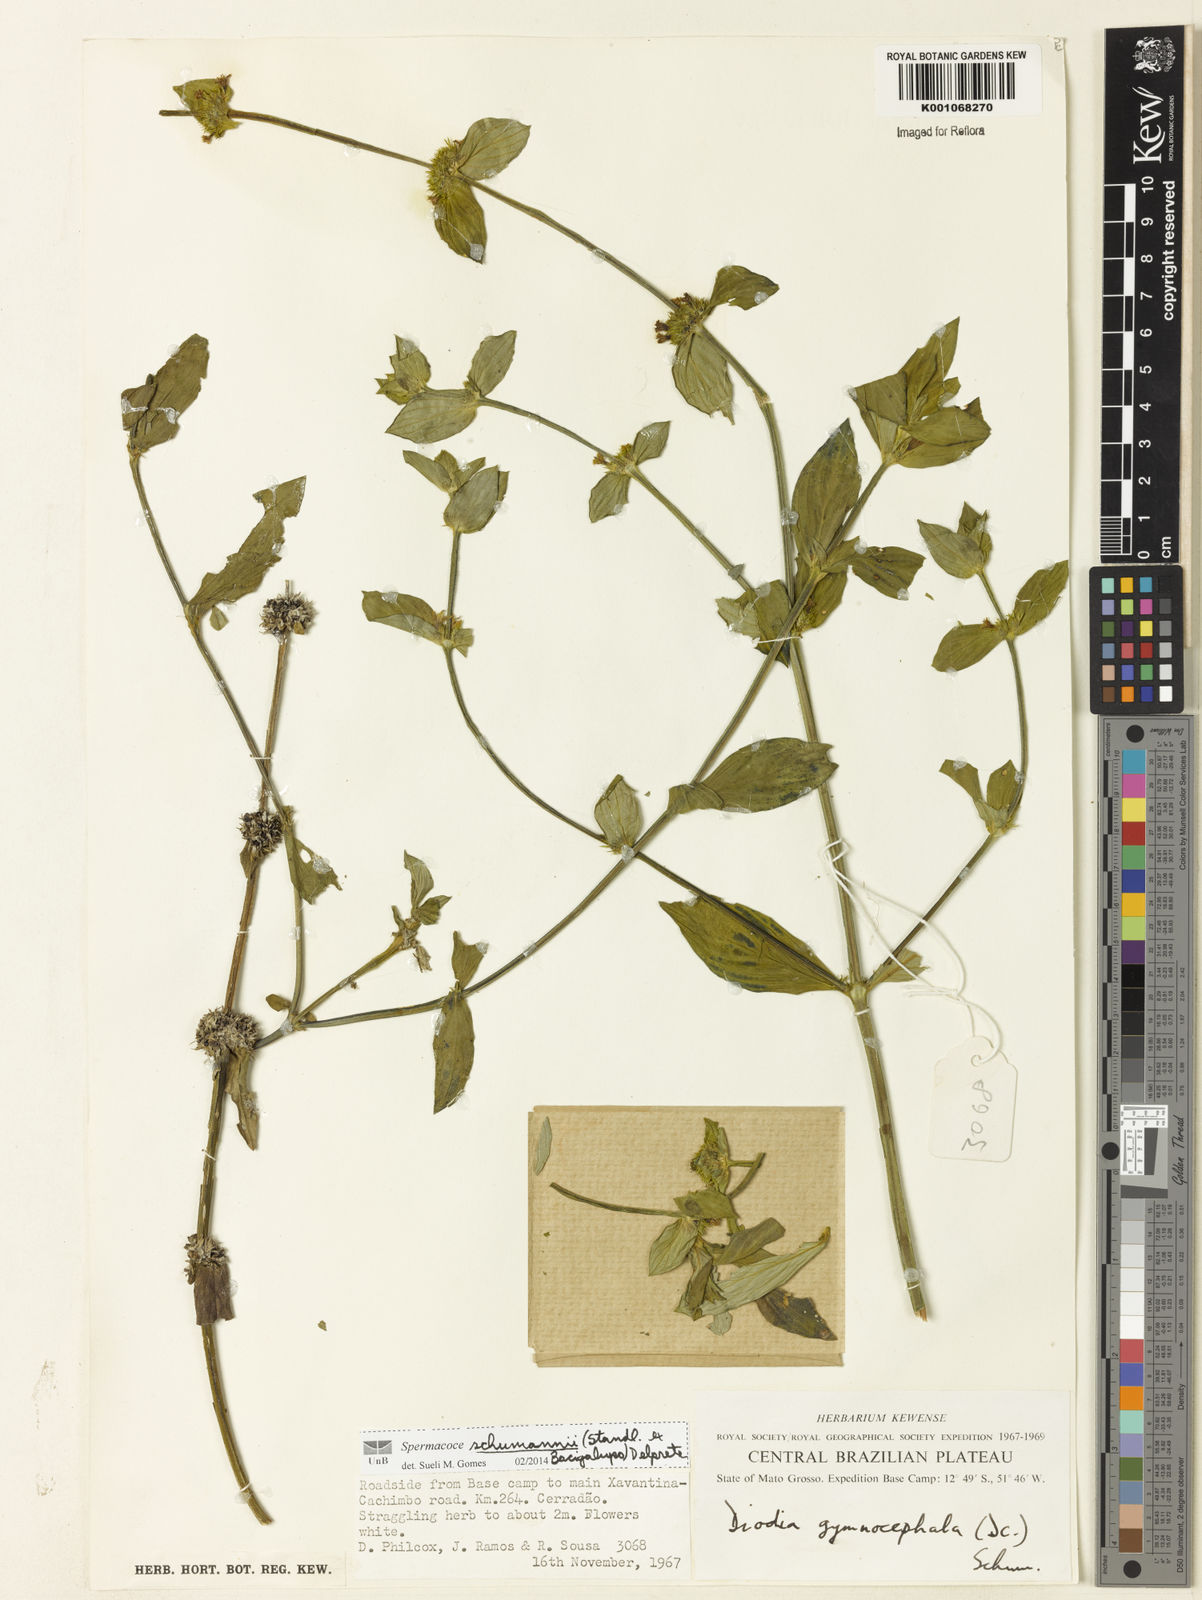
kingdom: Plantae
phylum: Tracheophyta
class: Magnoliopsida
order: Gentianales
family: Rubiaceae
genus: Spermacoce
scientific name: Spermacoce schumannii
